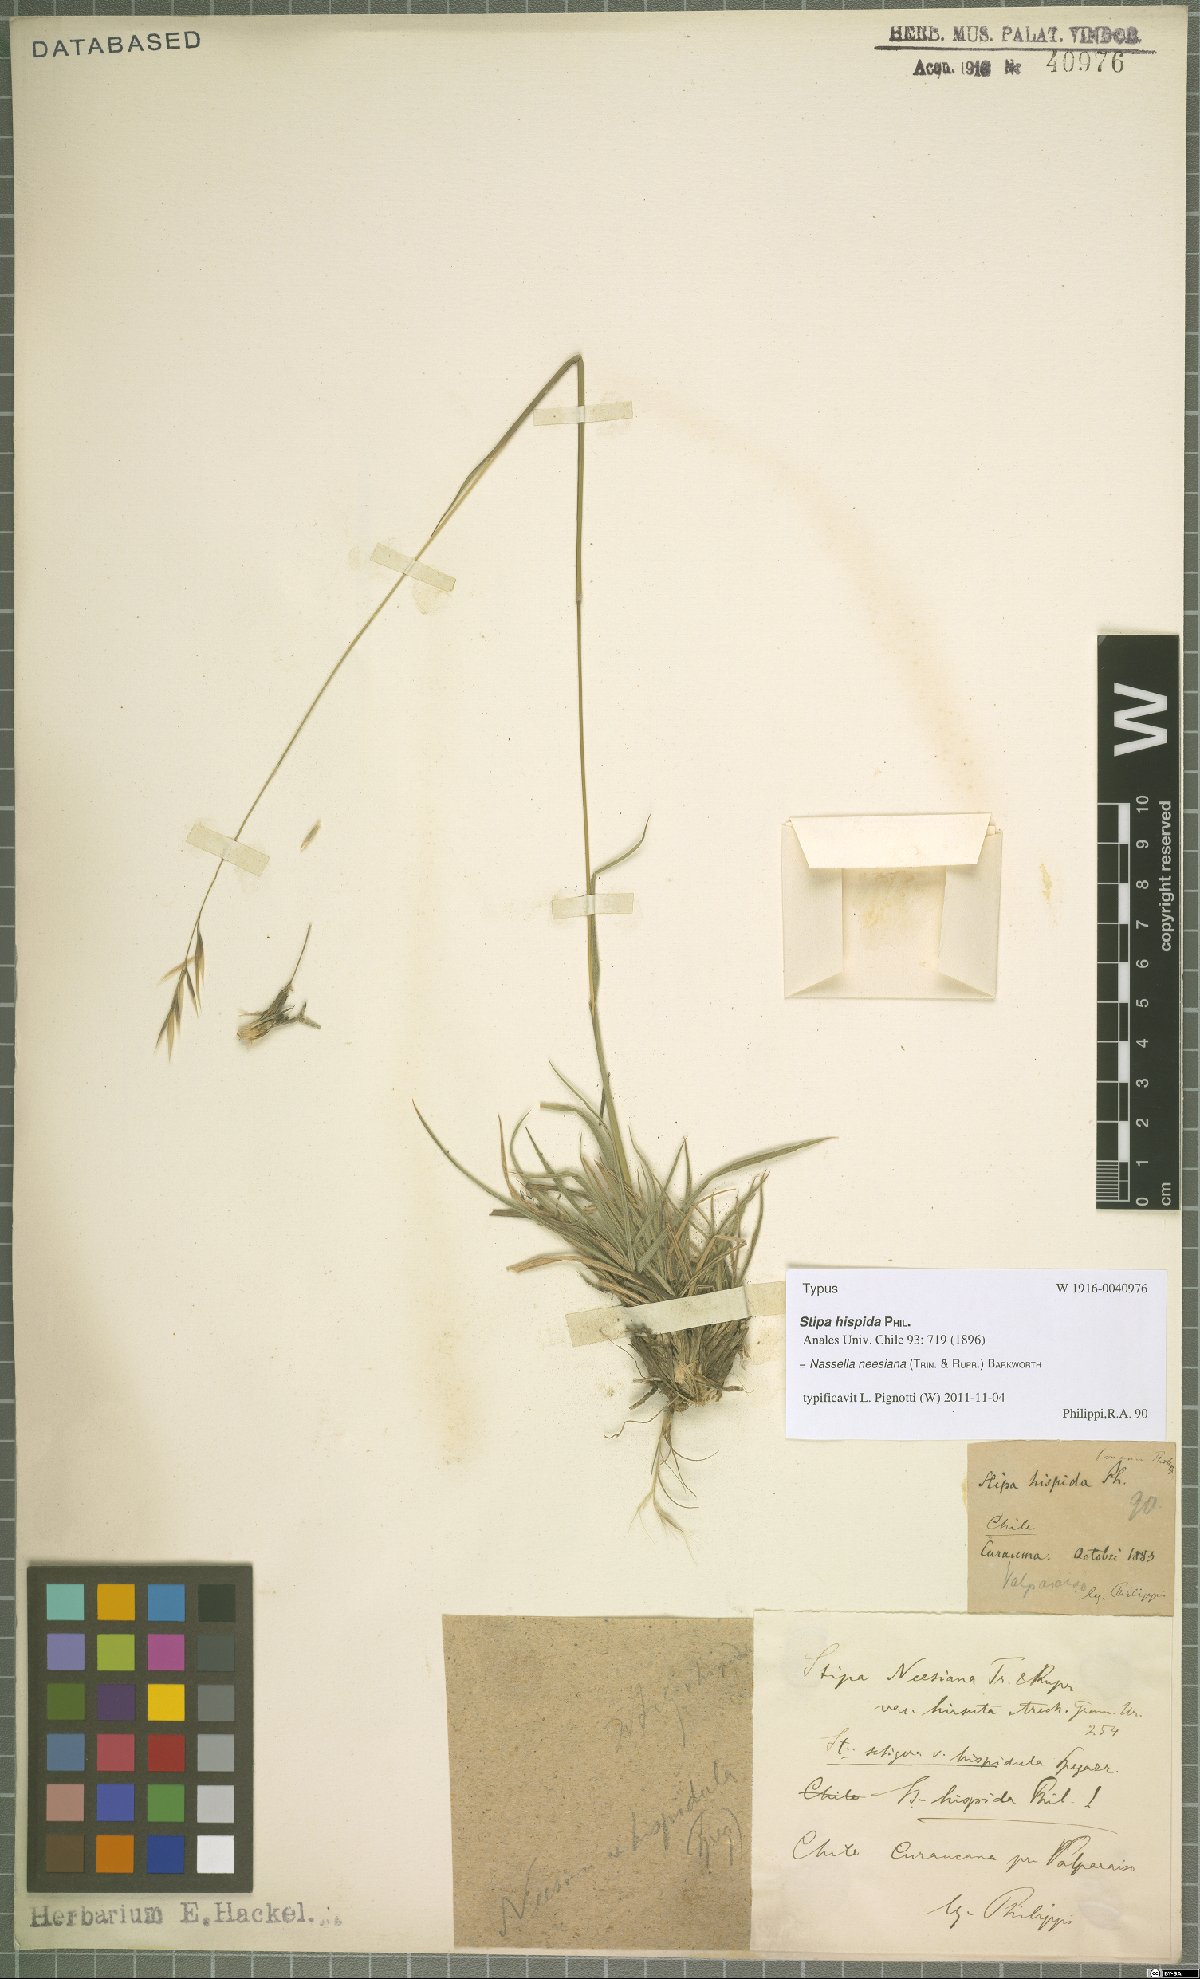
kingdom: Plantae
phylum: Tracheophyta
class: Liliopsida
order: Poales
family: Poaceae
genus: Nassella
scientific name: Nassella neesiana
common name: American needle-grass
